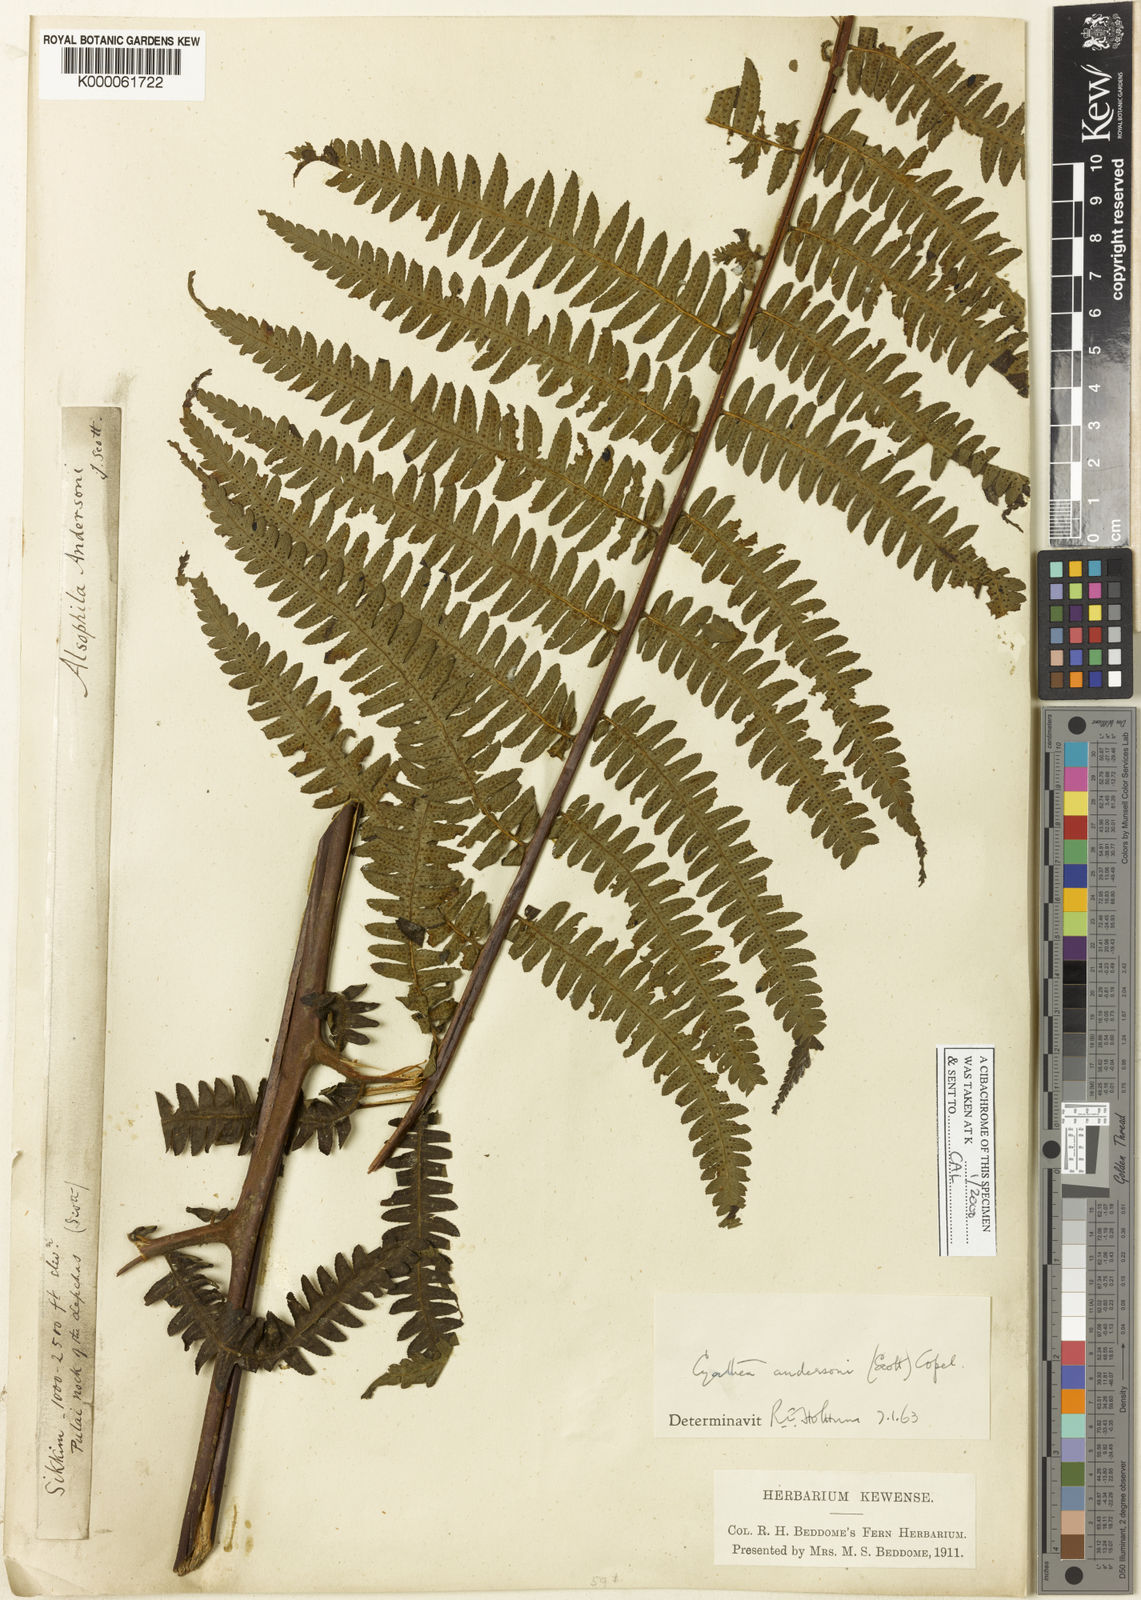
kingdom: Plantae
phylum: Tracheophyta
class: Polypodiopsida
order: Cyatheales
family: Cyatheaceae
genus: Gymnosphaera
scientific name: Gymnosphaera andersonii
